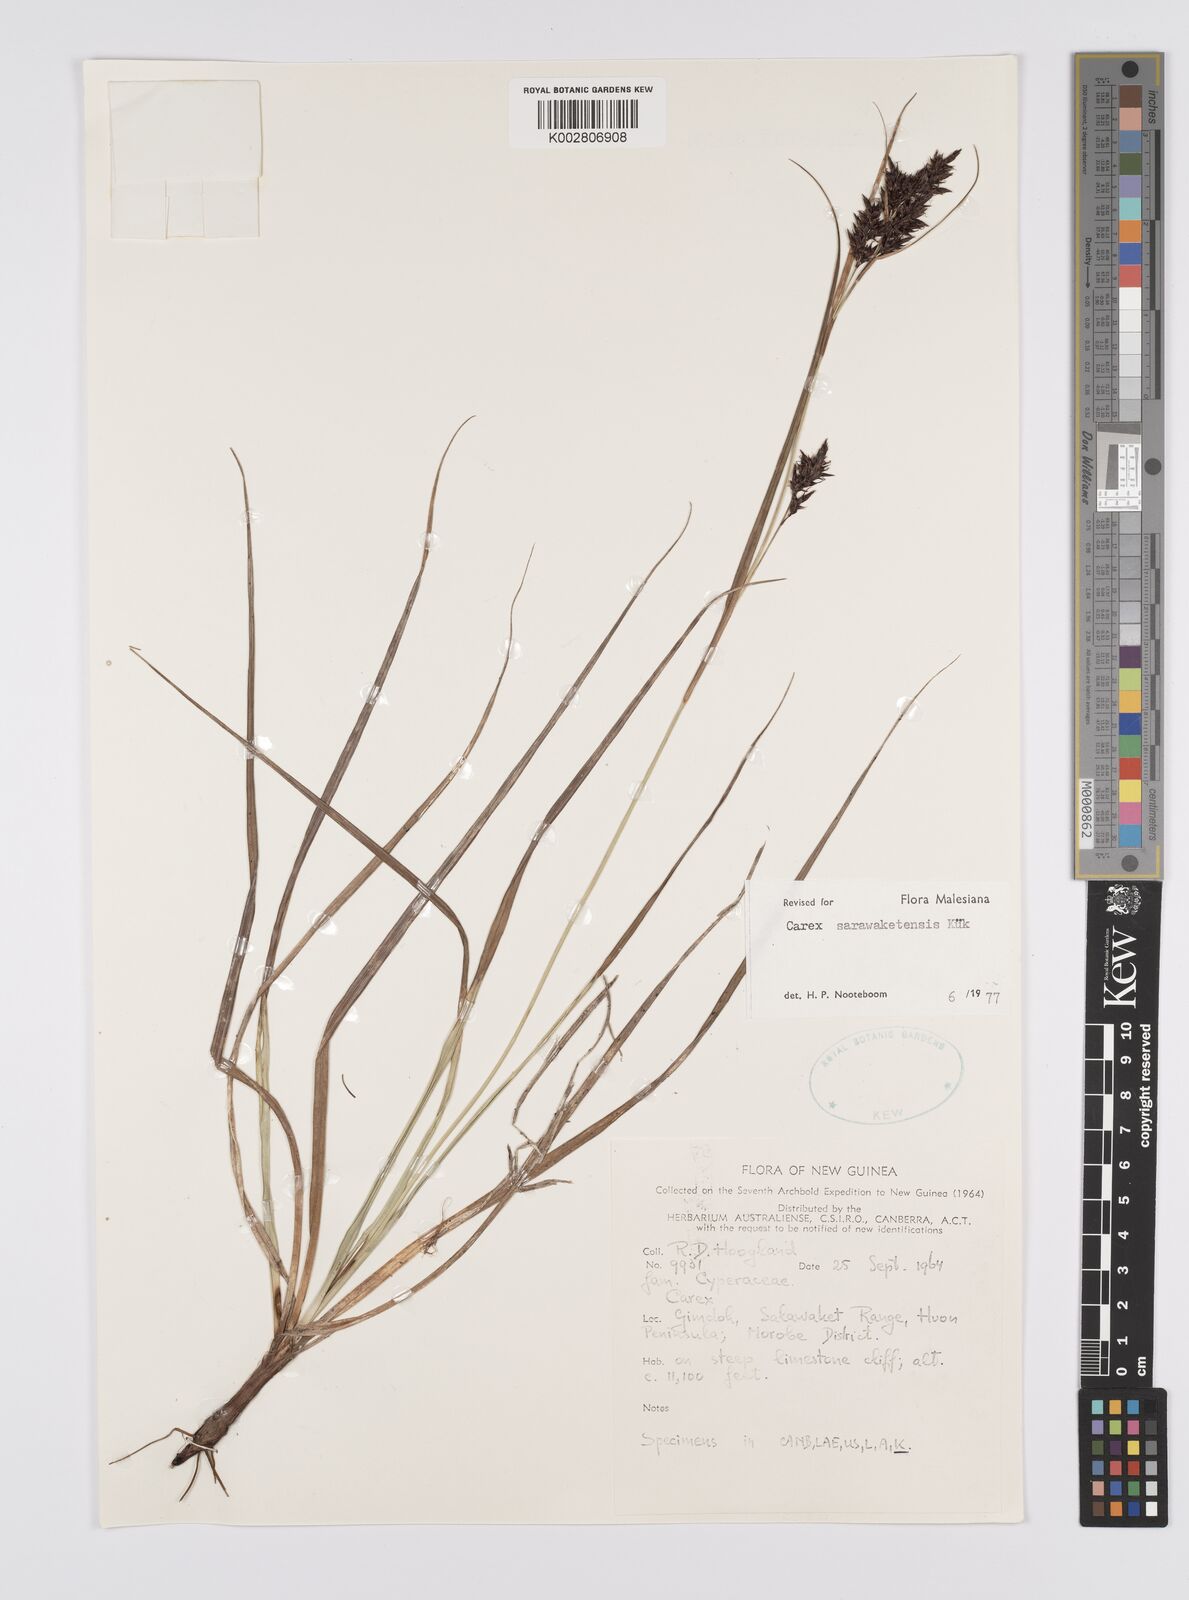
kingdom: Plantae
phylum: Tracheophyta
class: Liliopsida
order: Poales
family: Cyperaceae
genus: Carex
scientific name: Carex sarawaketensis
